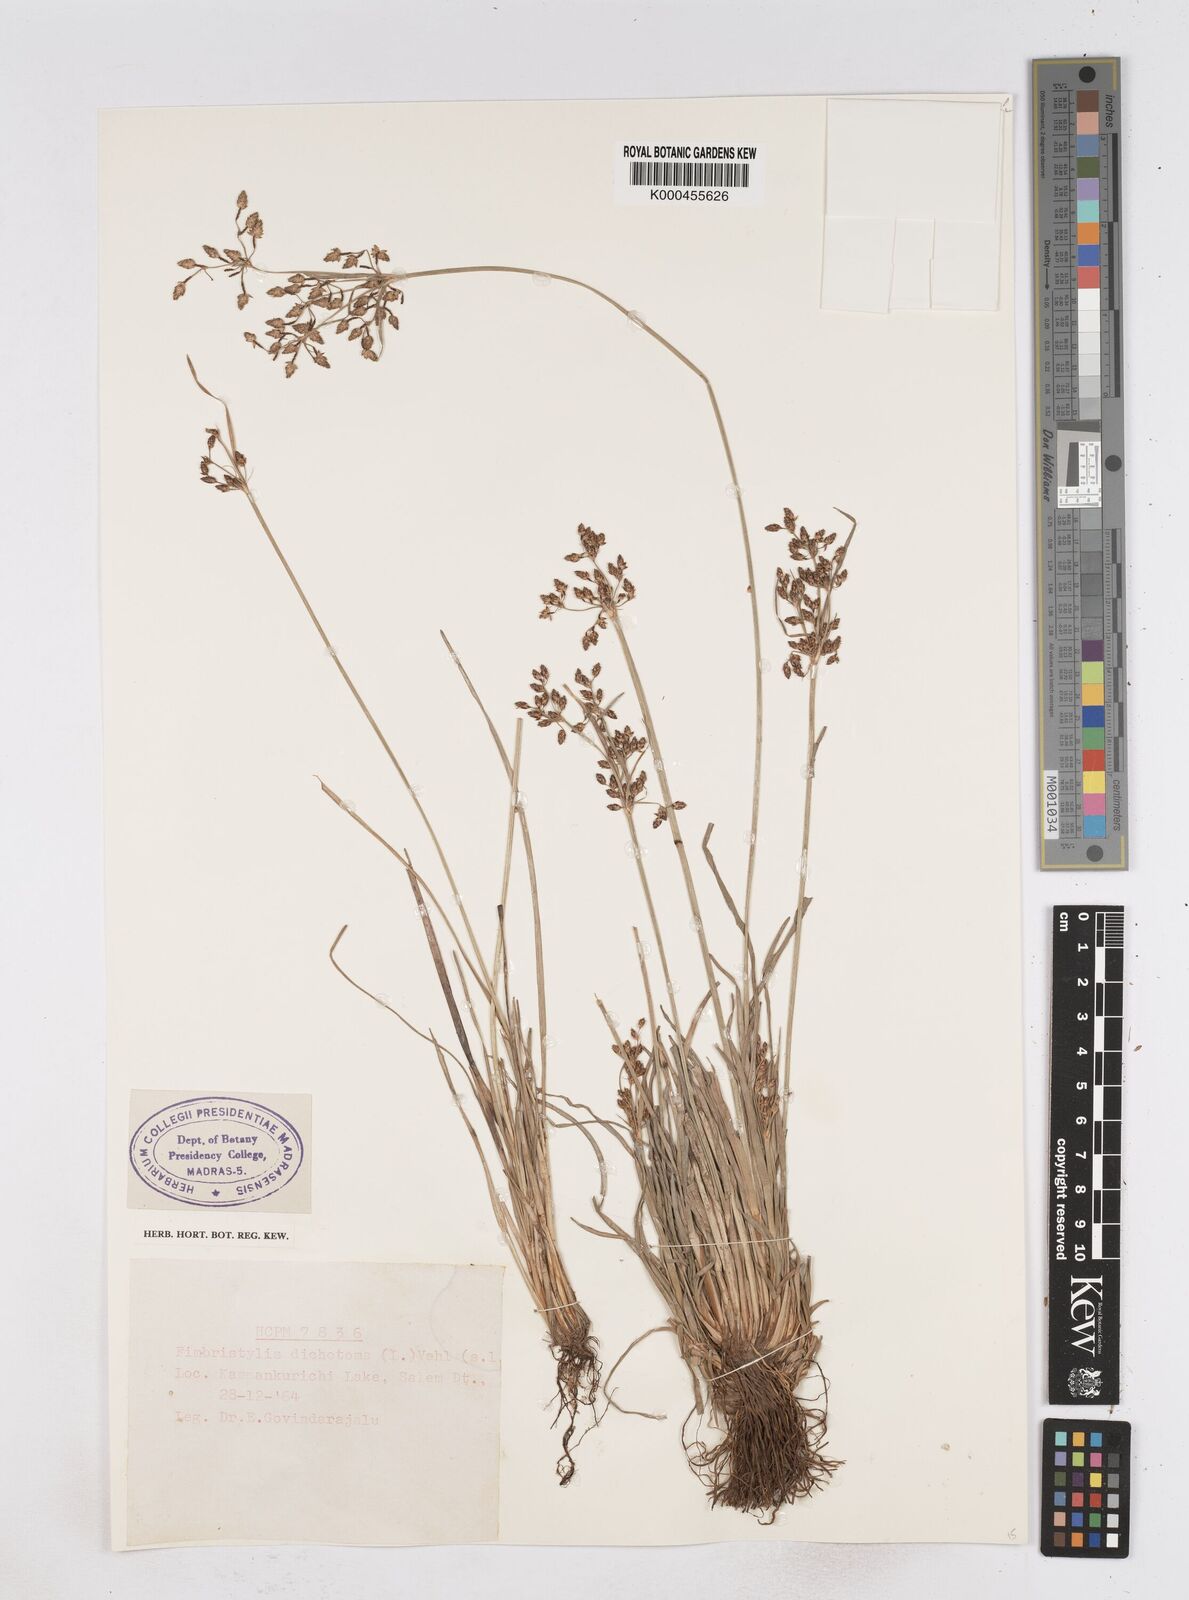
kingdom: Plantae
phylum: Tracheophyta
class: Liliopsida
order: Poales
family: Cyperaceae
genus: Fimbristylis
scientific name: Fimbristylis dichotoma
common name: Forked fimbry
